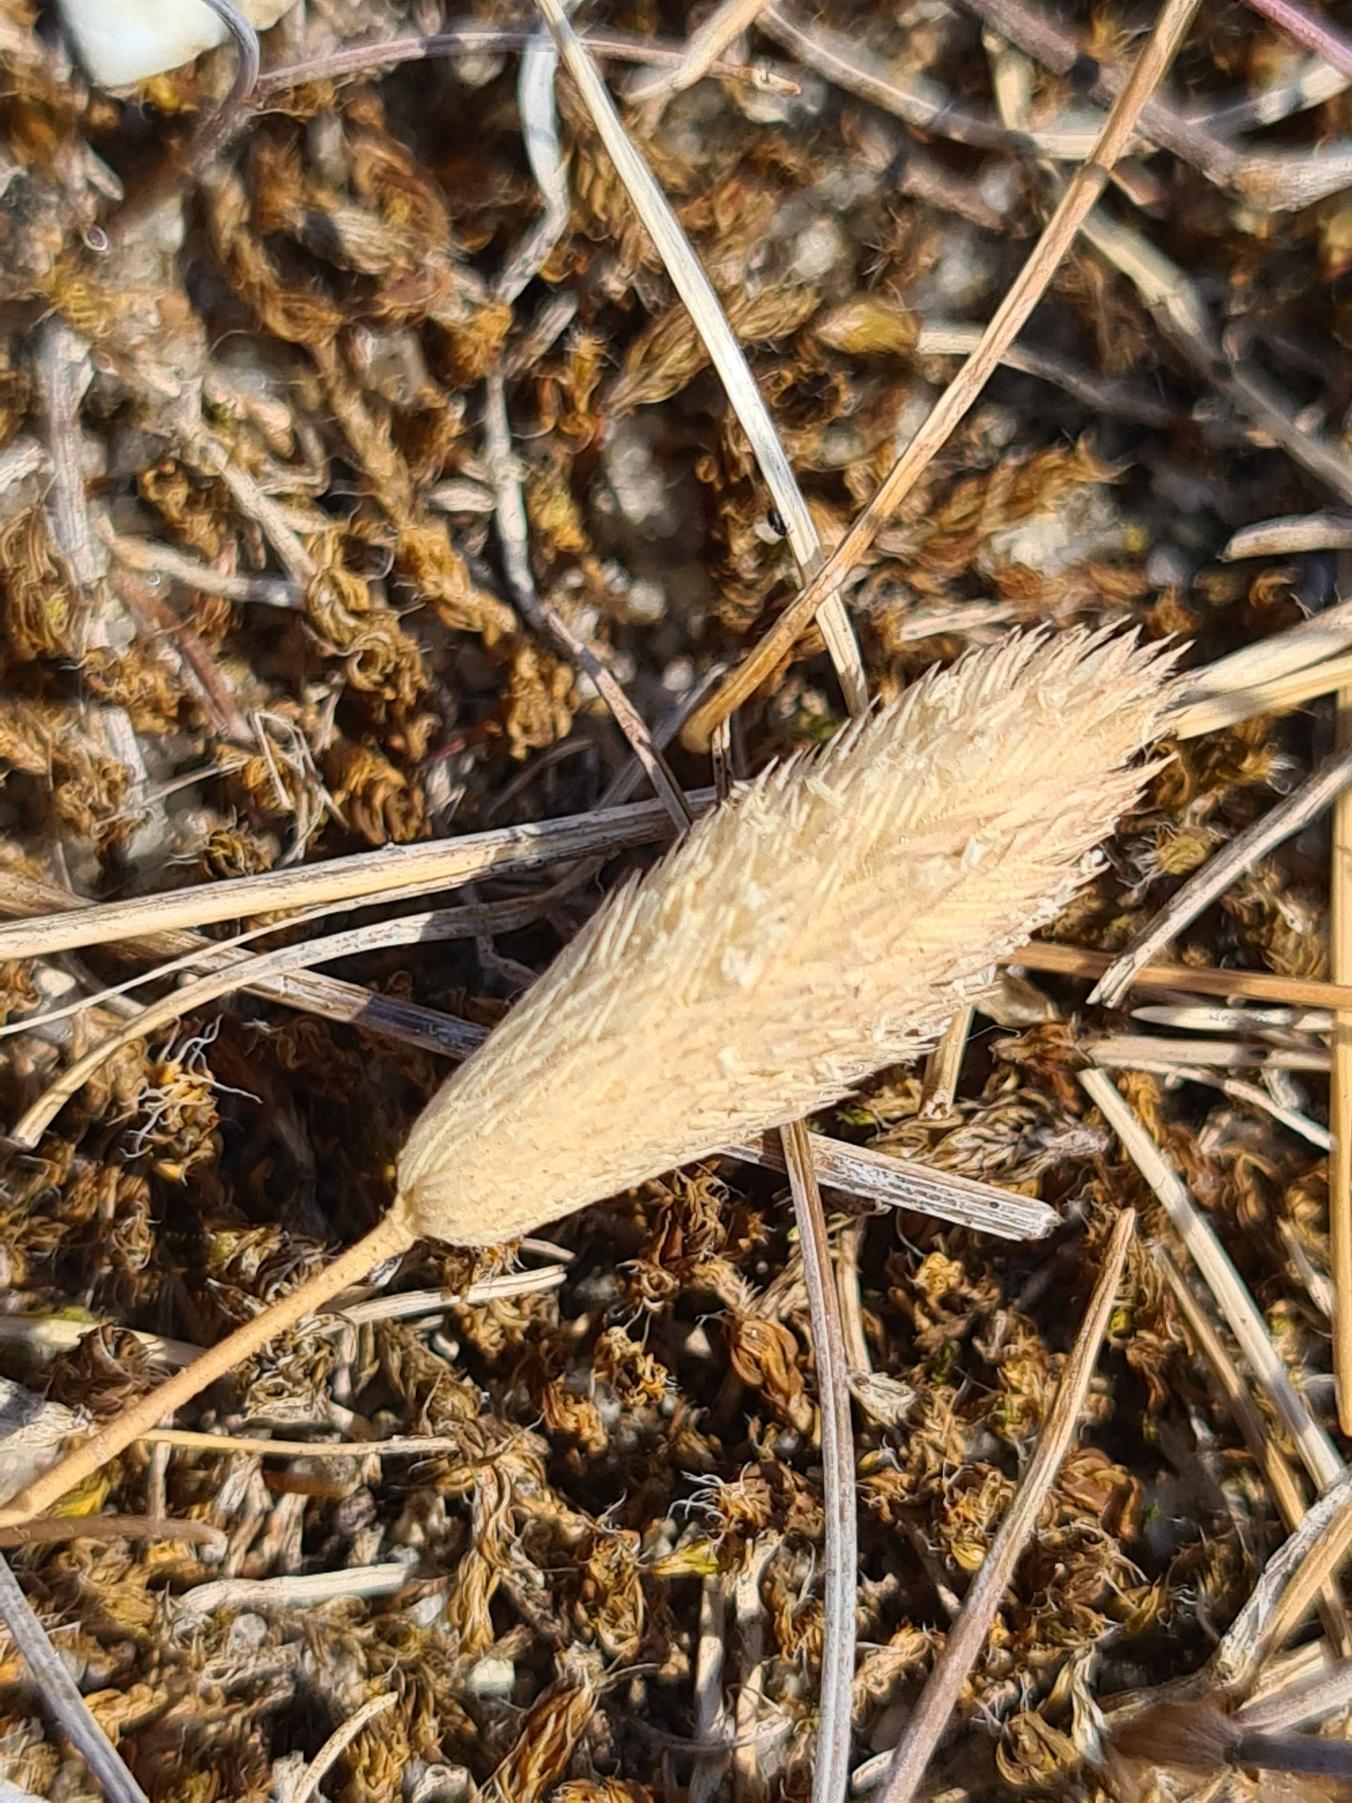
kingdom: Plantae
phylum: Tracheophyta
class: Liliopsida
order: Poales
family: Poaceae
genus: Phleum
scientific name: Phleum arenarium
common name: Sand-rottehale
